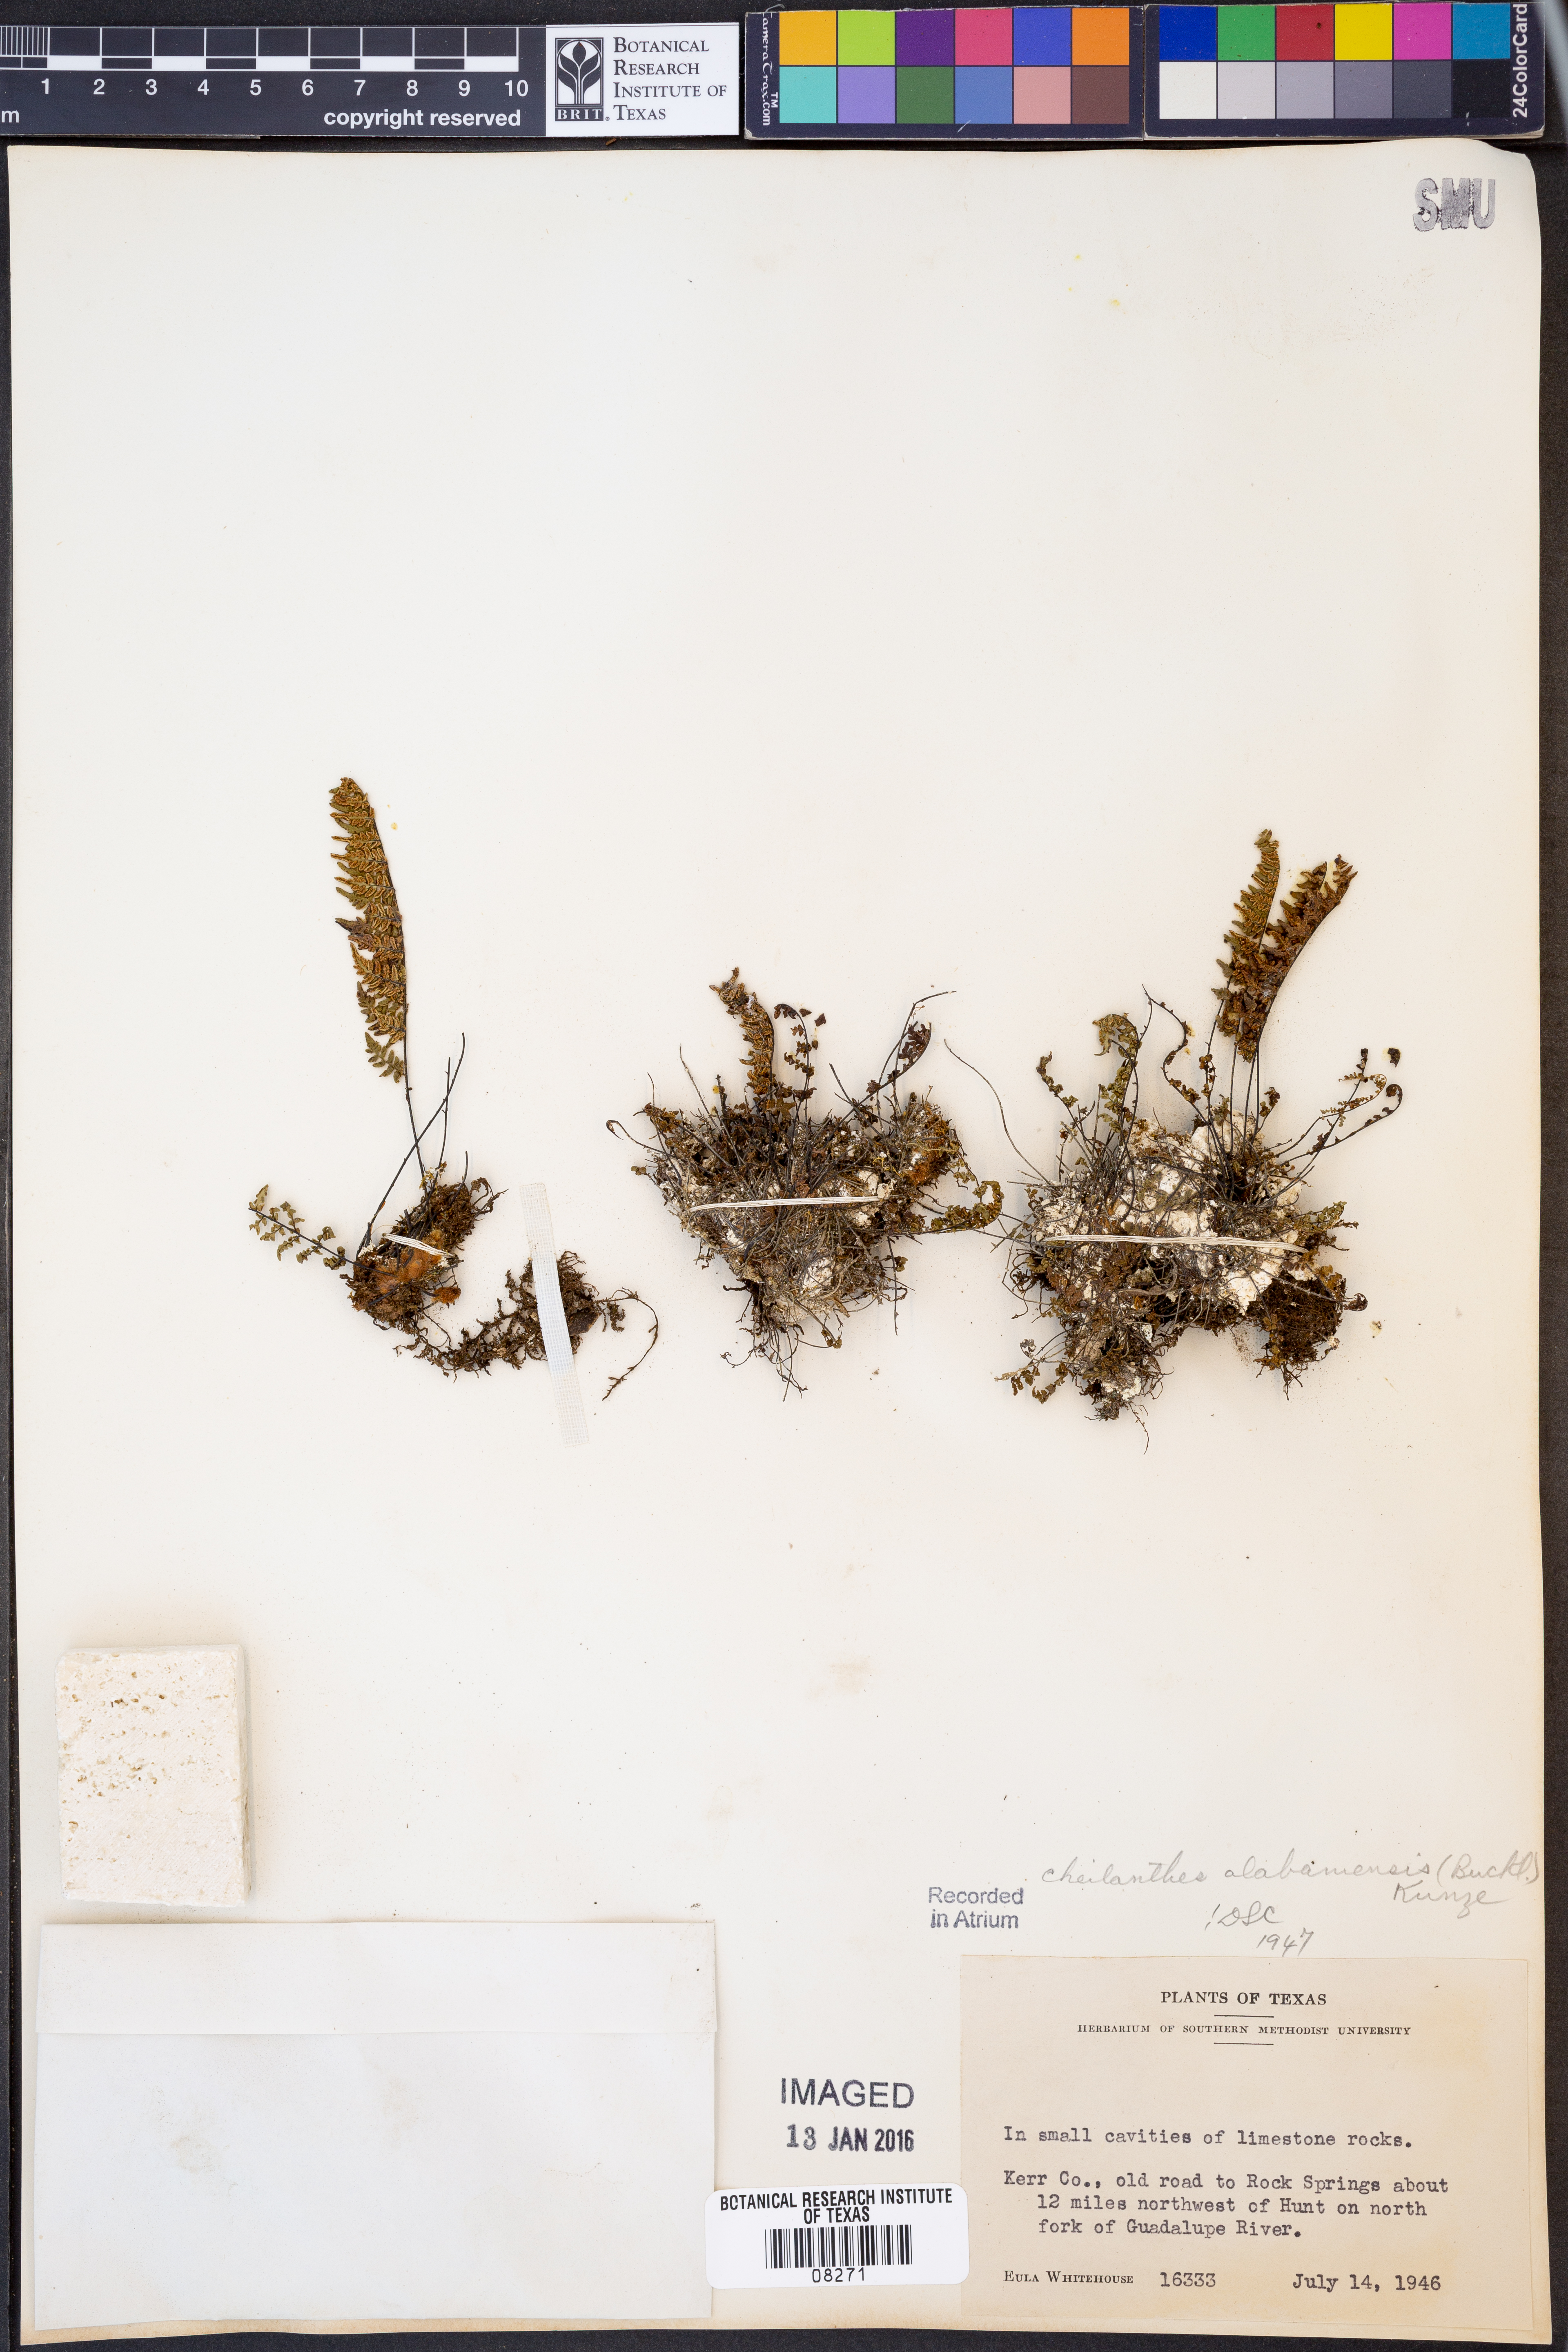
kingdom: Plantae
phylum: Tracheophyta
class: Polypodiopsida
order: Polypodiales
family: Pteridaceae
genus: Myriopteris
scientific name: Myriopteris alabamensis
